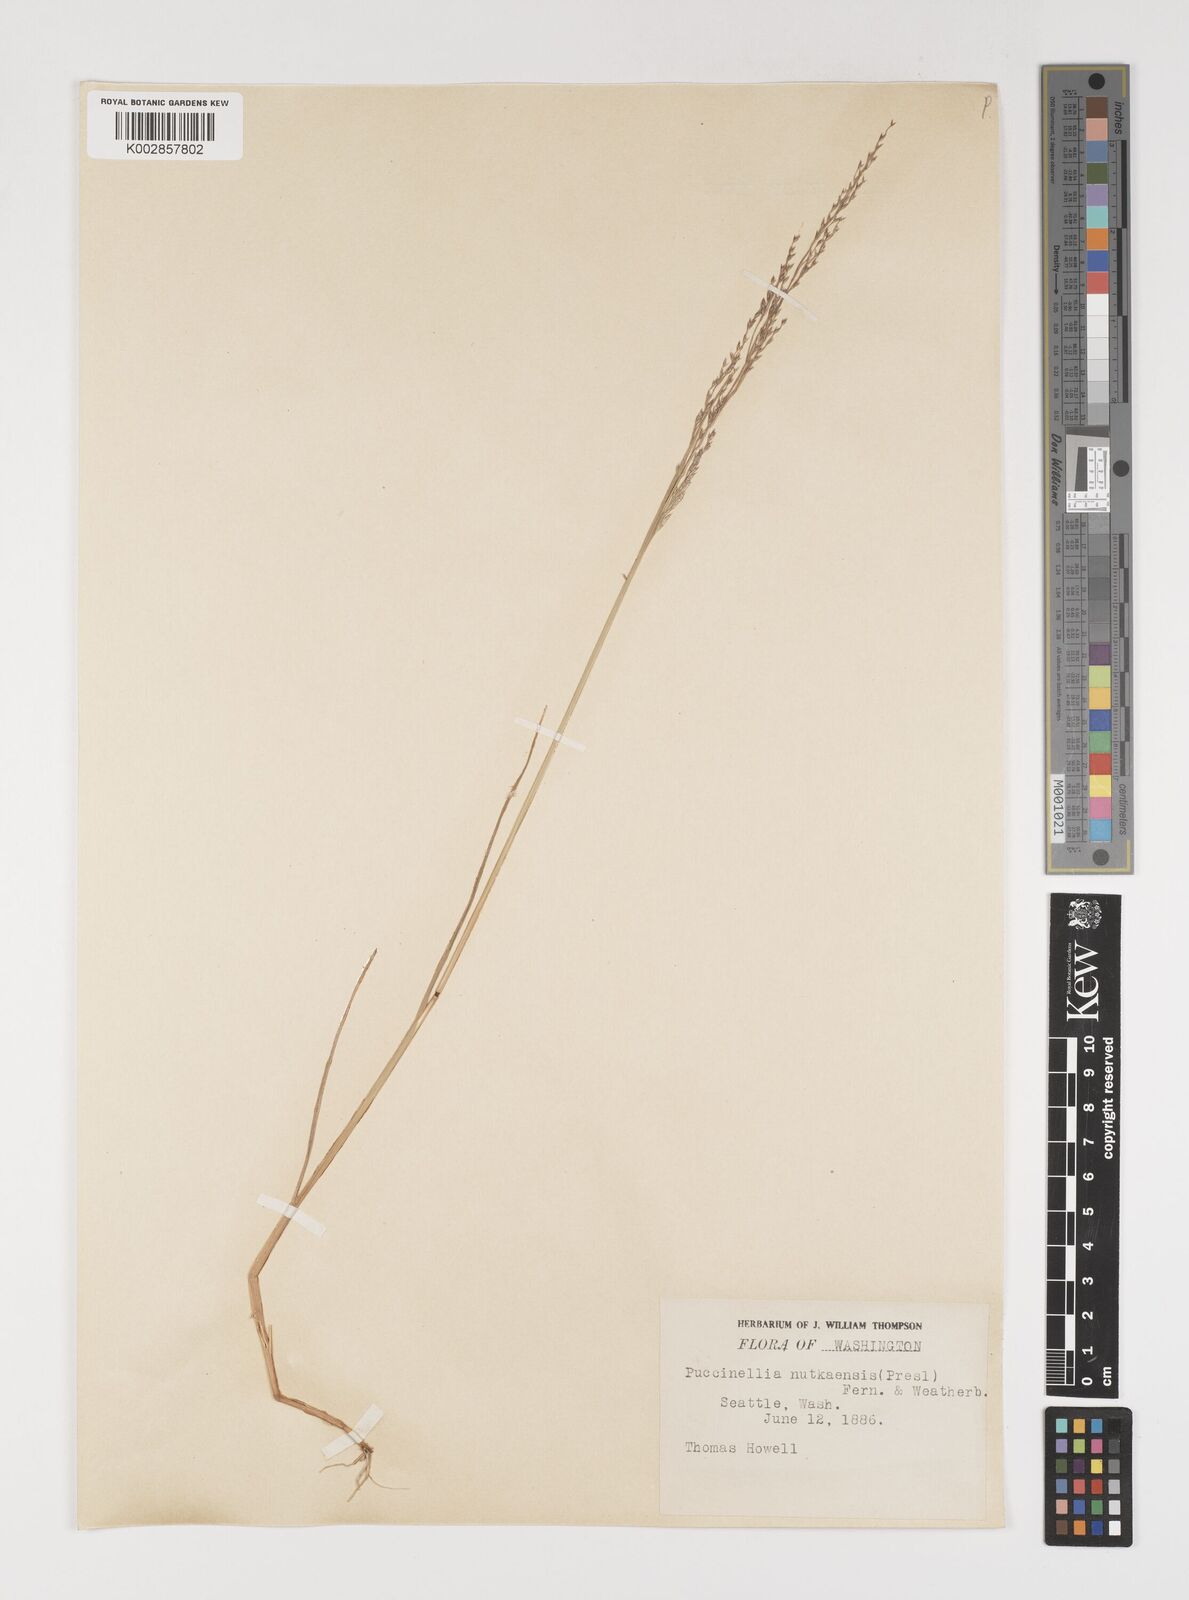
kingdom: Plantae
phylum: Tracheophyta
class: Liliopsida
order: Poales
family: Poaceae
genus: Puccinellia
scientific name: Puccinellia nutkaensis
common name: Nootka alkaligrass
